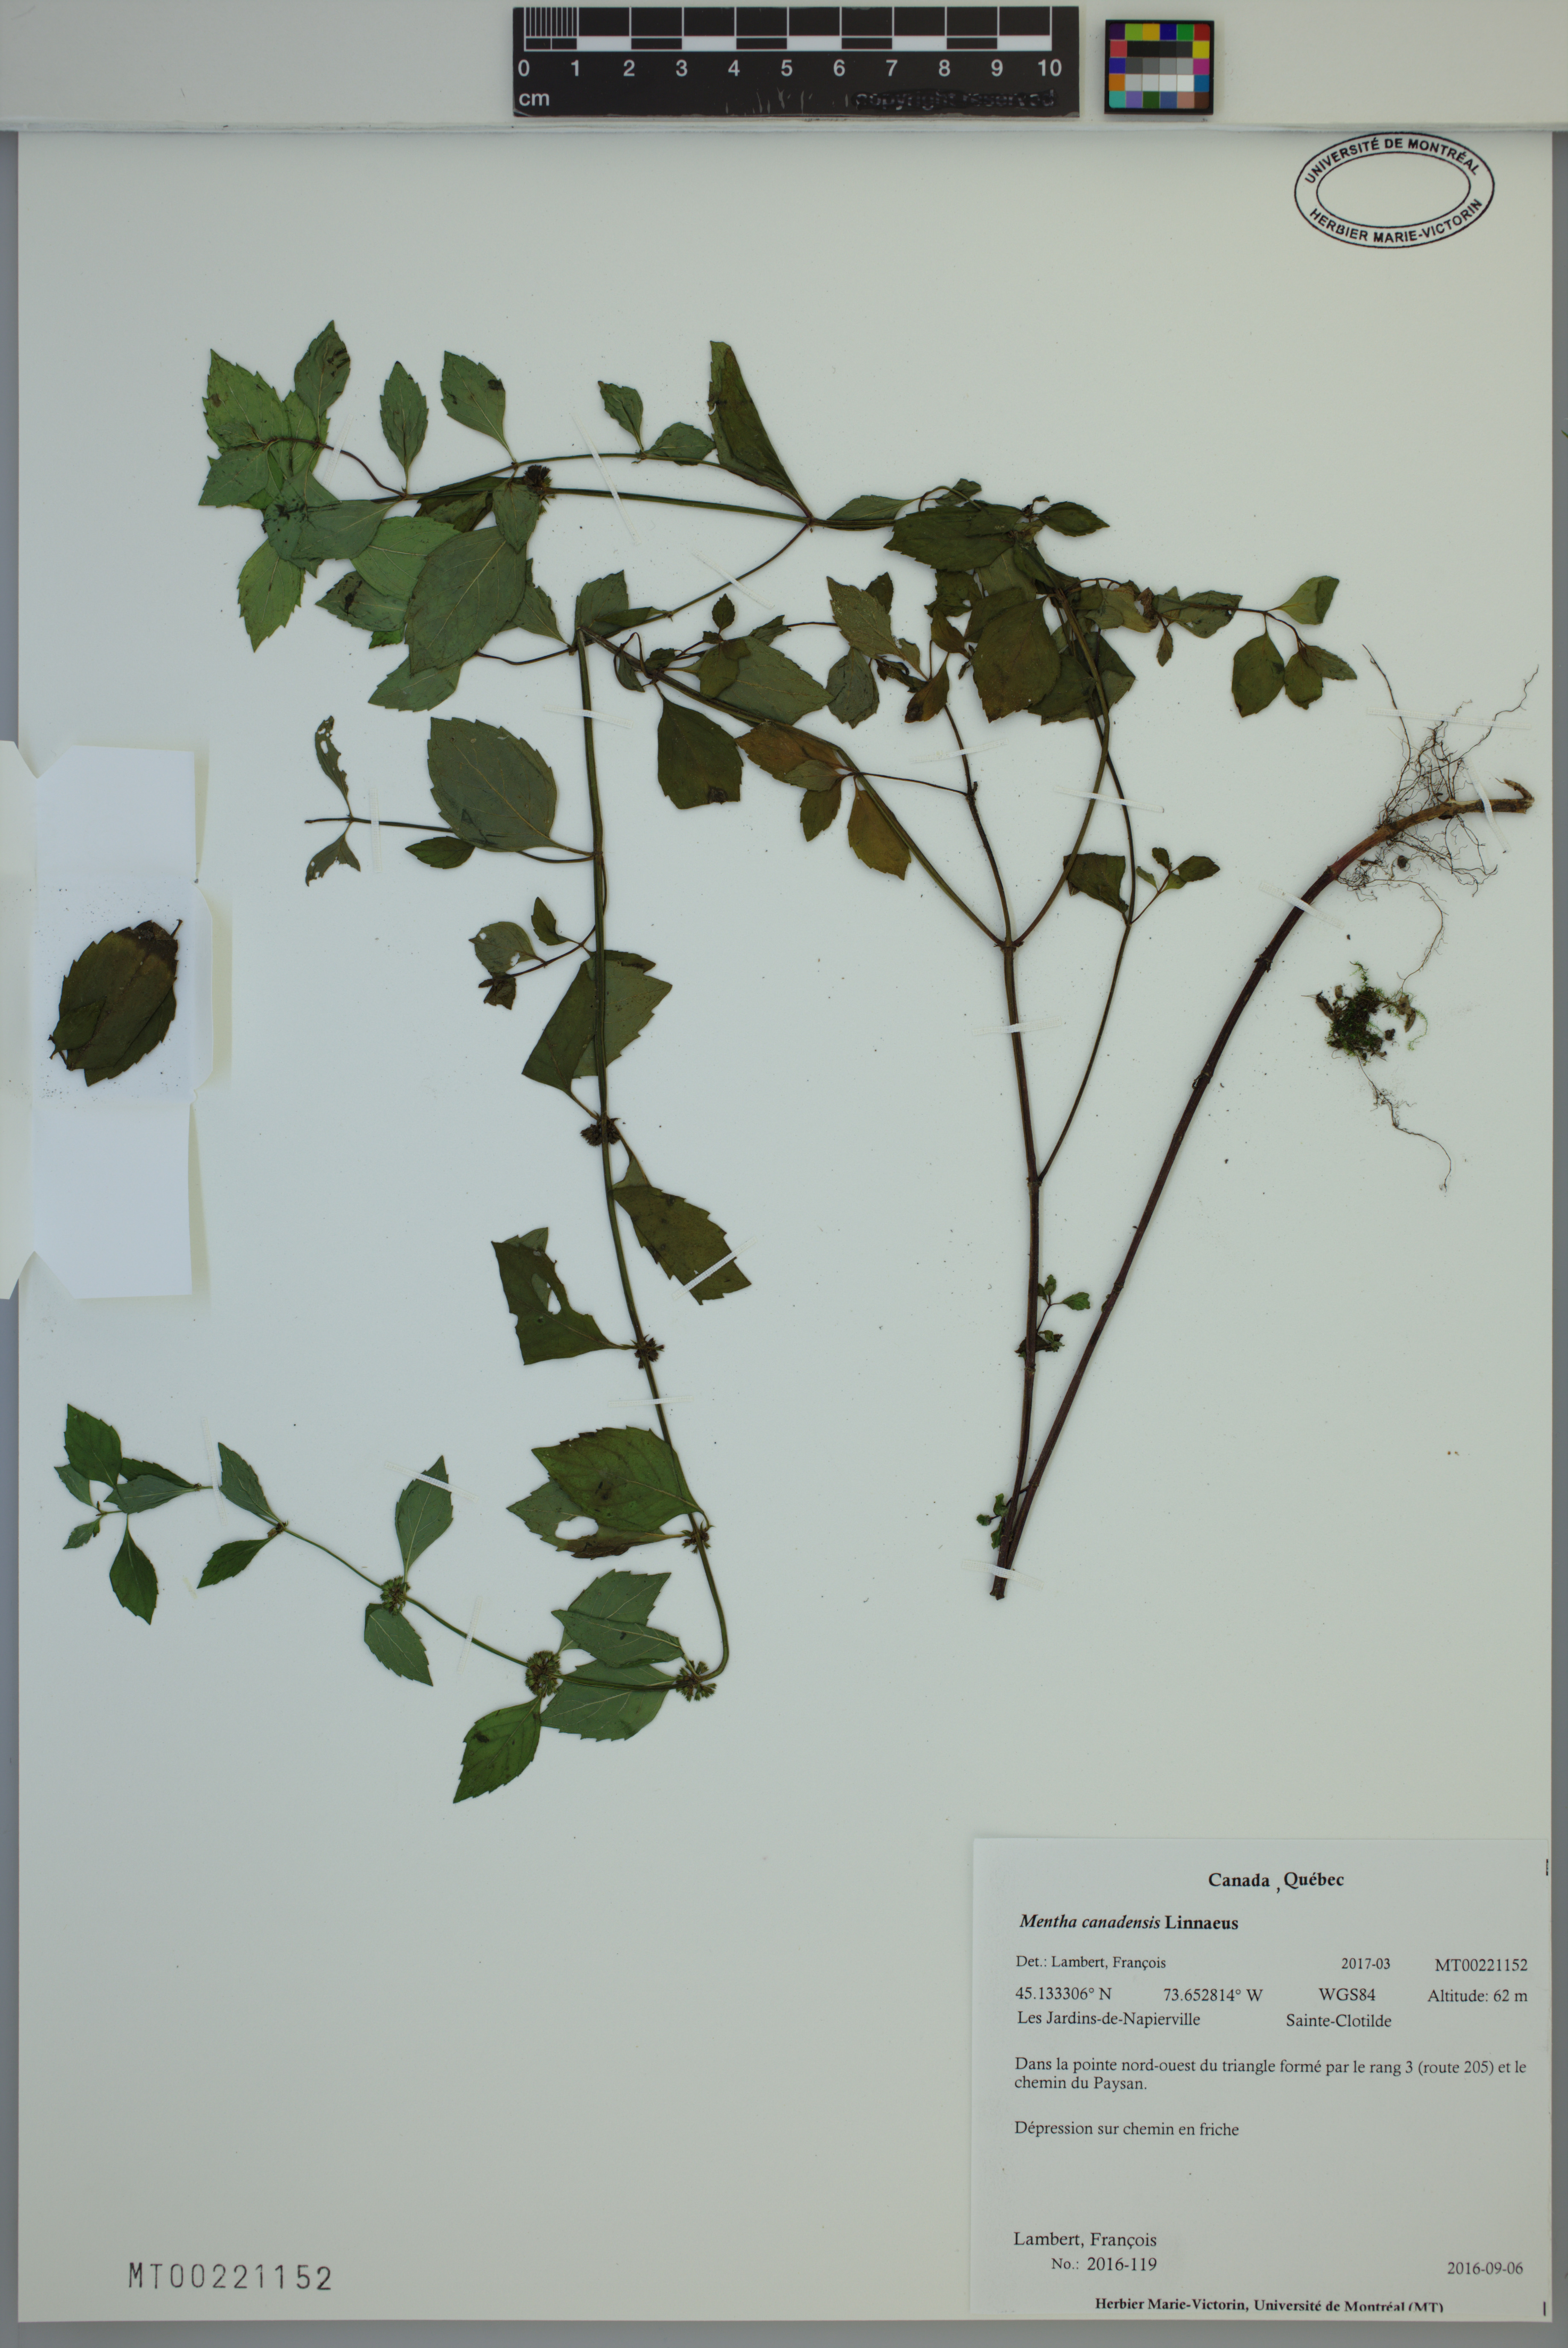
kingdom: Plantae
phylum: Tracheophyta
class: Magnoliopsida
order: Lamiales
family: Lamiaceae
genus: Mentha
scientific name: Mentha canadensis
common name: American corn mint
